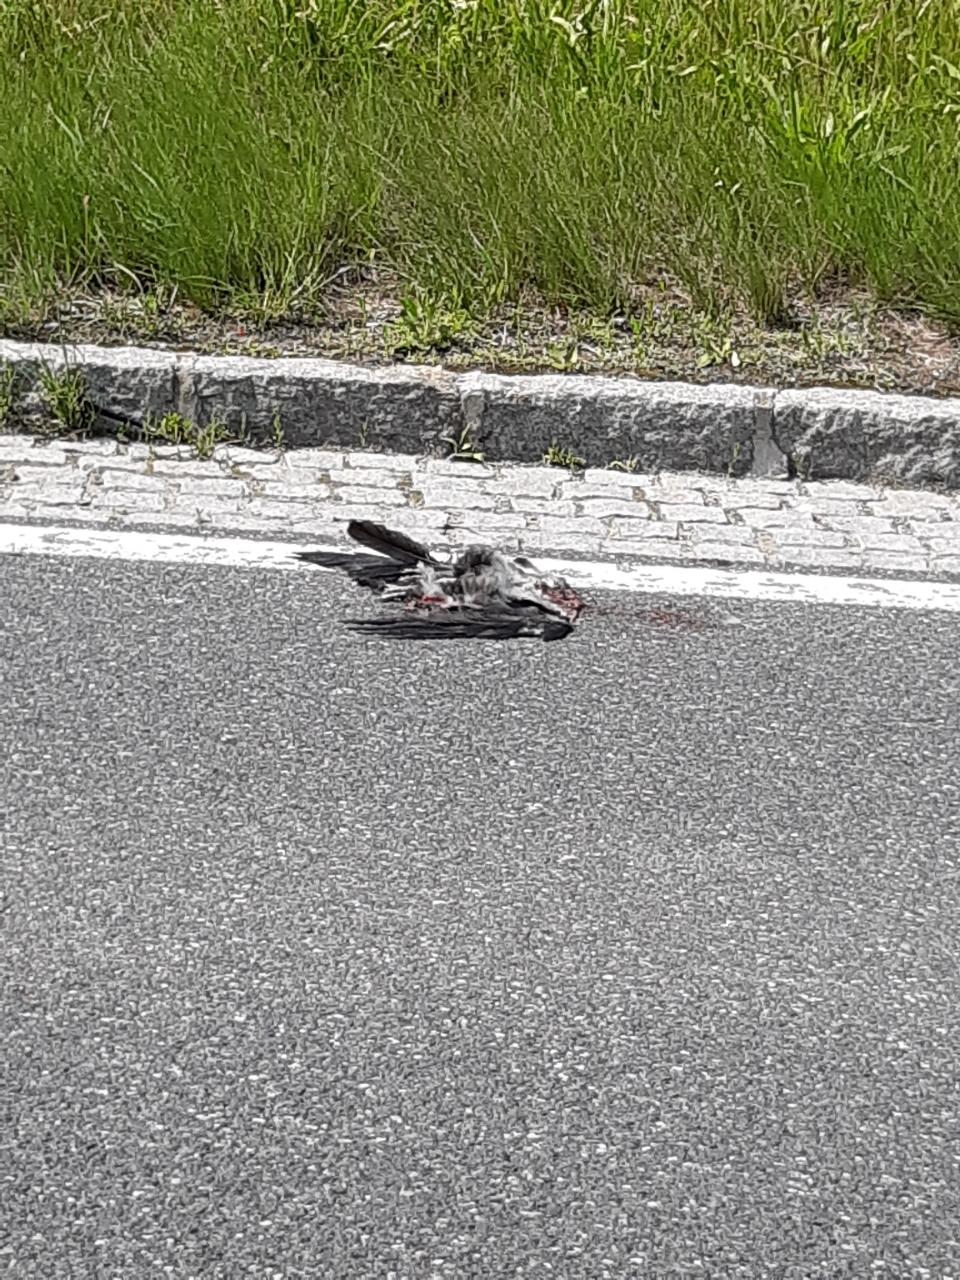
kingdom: Animalia
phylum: Chordata
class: Aves
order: Passeriformes
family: Corvidae
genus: Corvus
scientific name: Corvus corone
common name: Carrion crow
